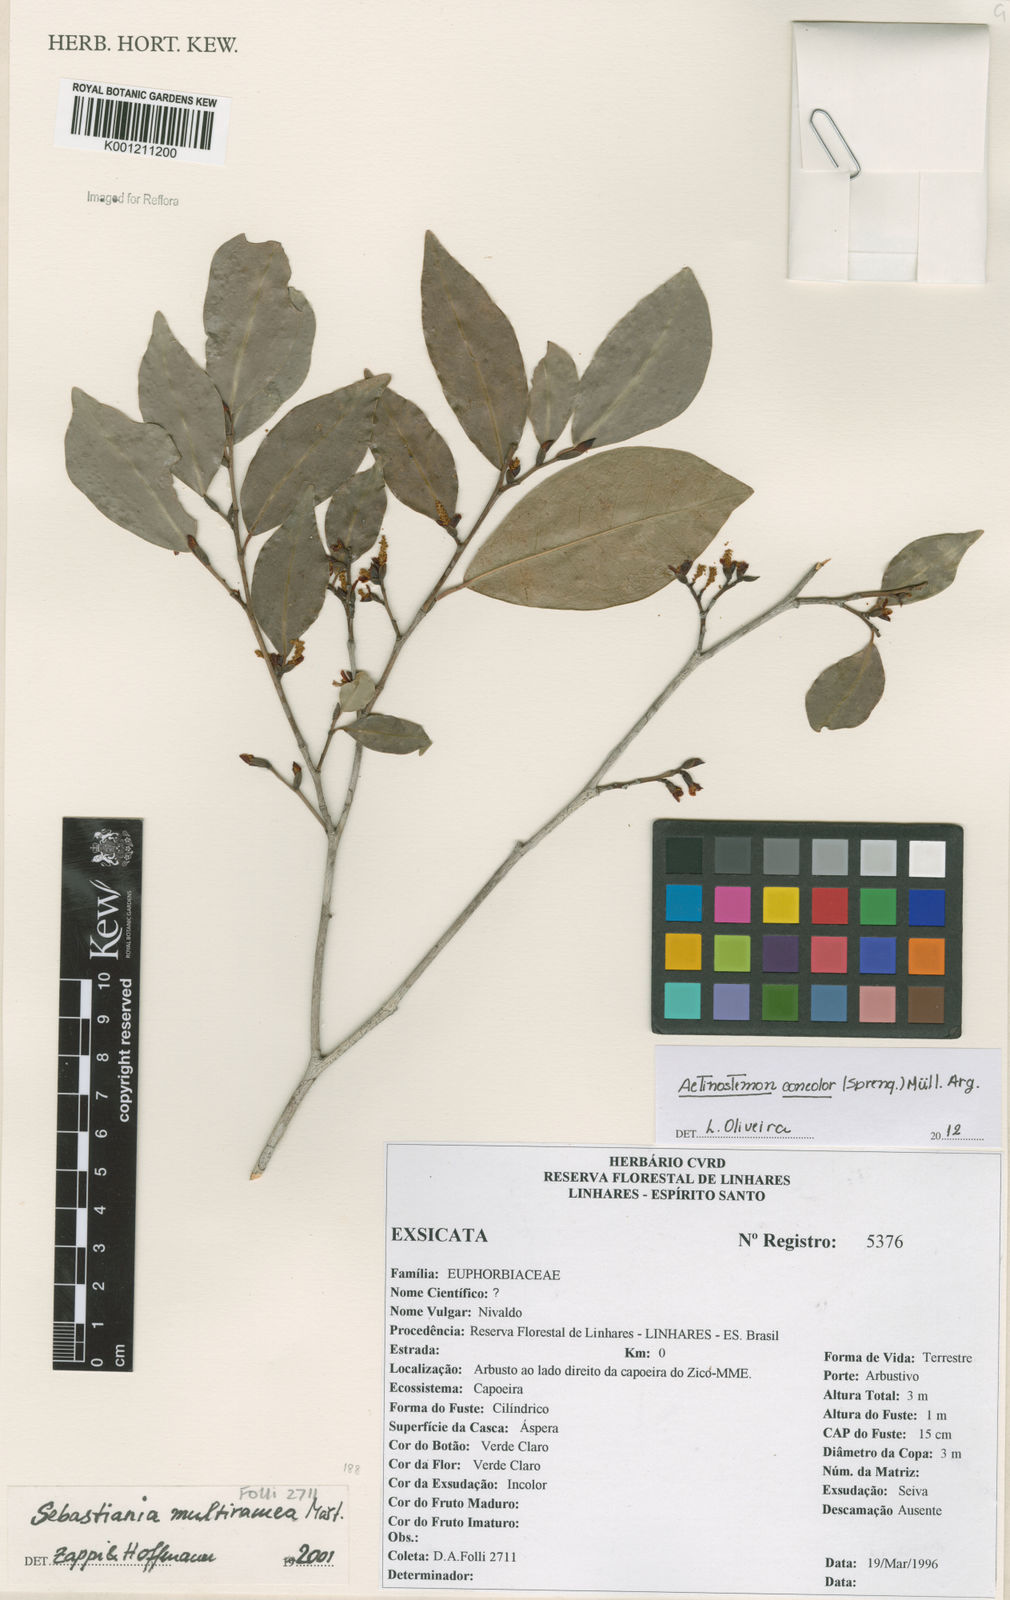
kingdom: Plantae
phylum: Tracheophyta
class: Magnoliopsida
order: Malpighiales
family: Euphorbiaceae
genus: Actinostemon
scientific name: Actinostemon
